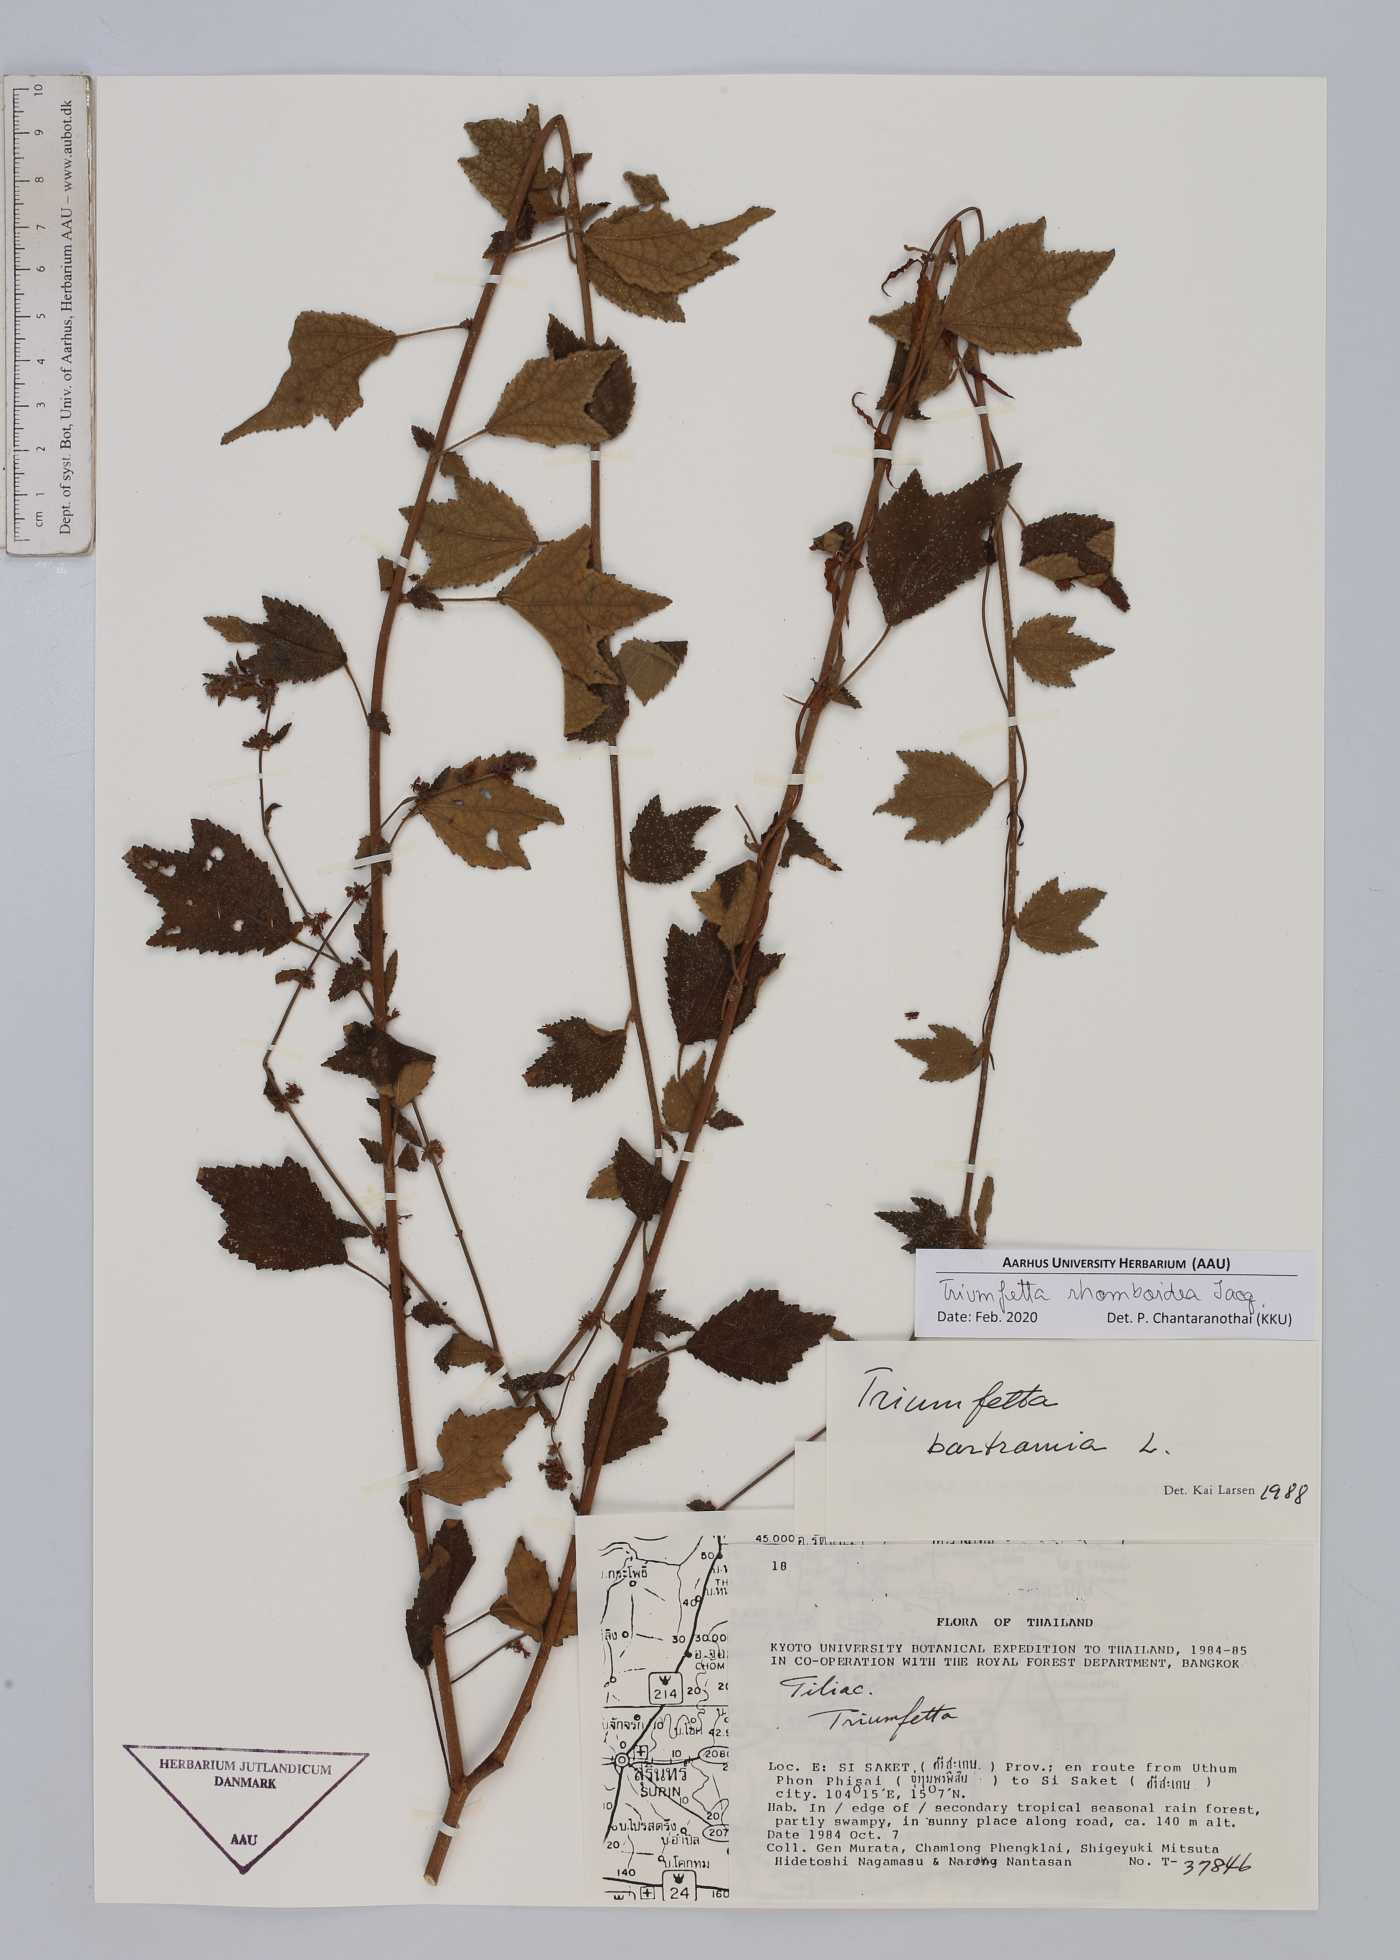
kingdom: Plantae
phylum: Tracheophyta
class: Magnoliopsida
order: Malvales
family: Malvaceae
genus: Triumfetta
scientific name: Triumfetta rhomboidea
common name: Diamond burbark
